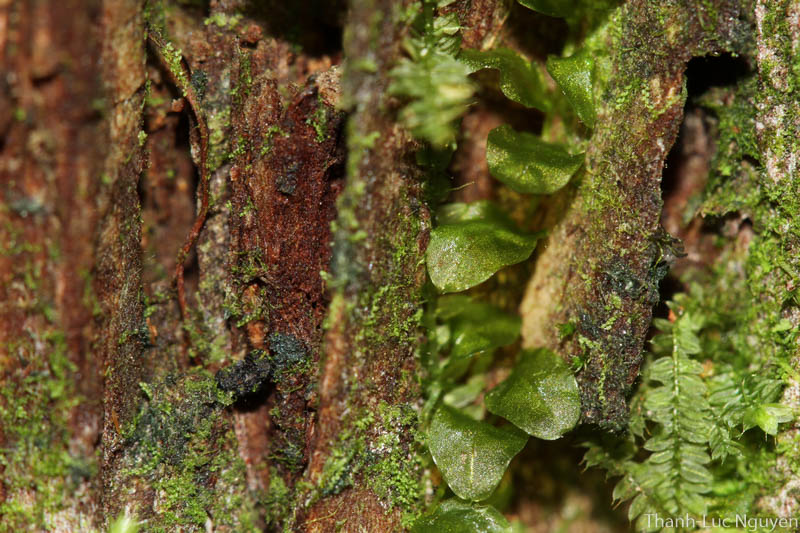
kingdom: Plantae
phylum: Bryophyta
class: Bryopsida
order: Bryales
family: Mniaceae
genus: Orthomnion
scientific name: Orthomnion bryoides
